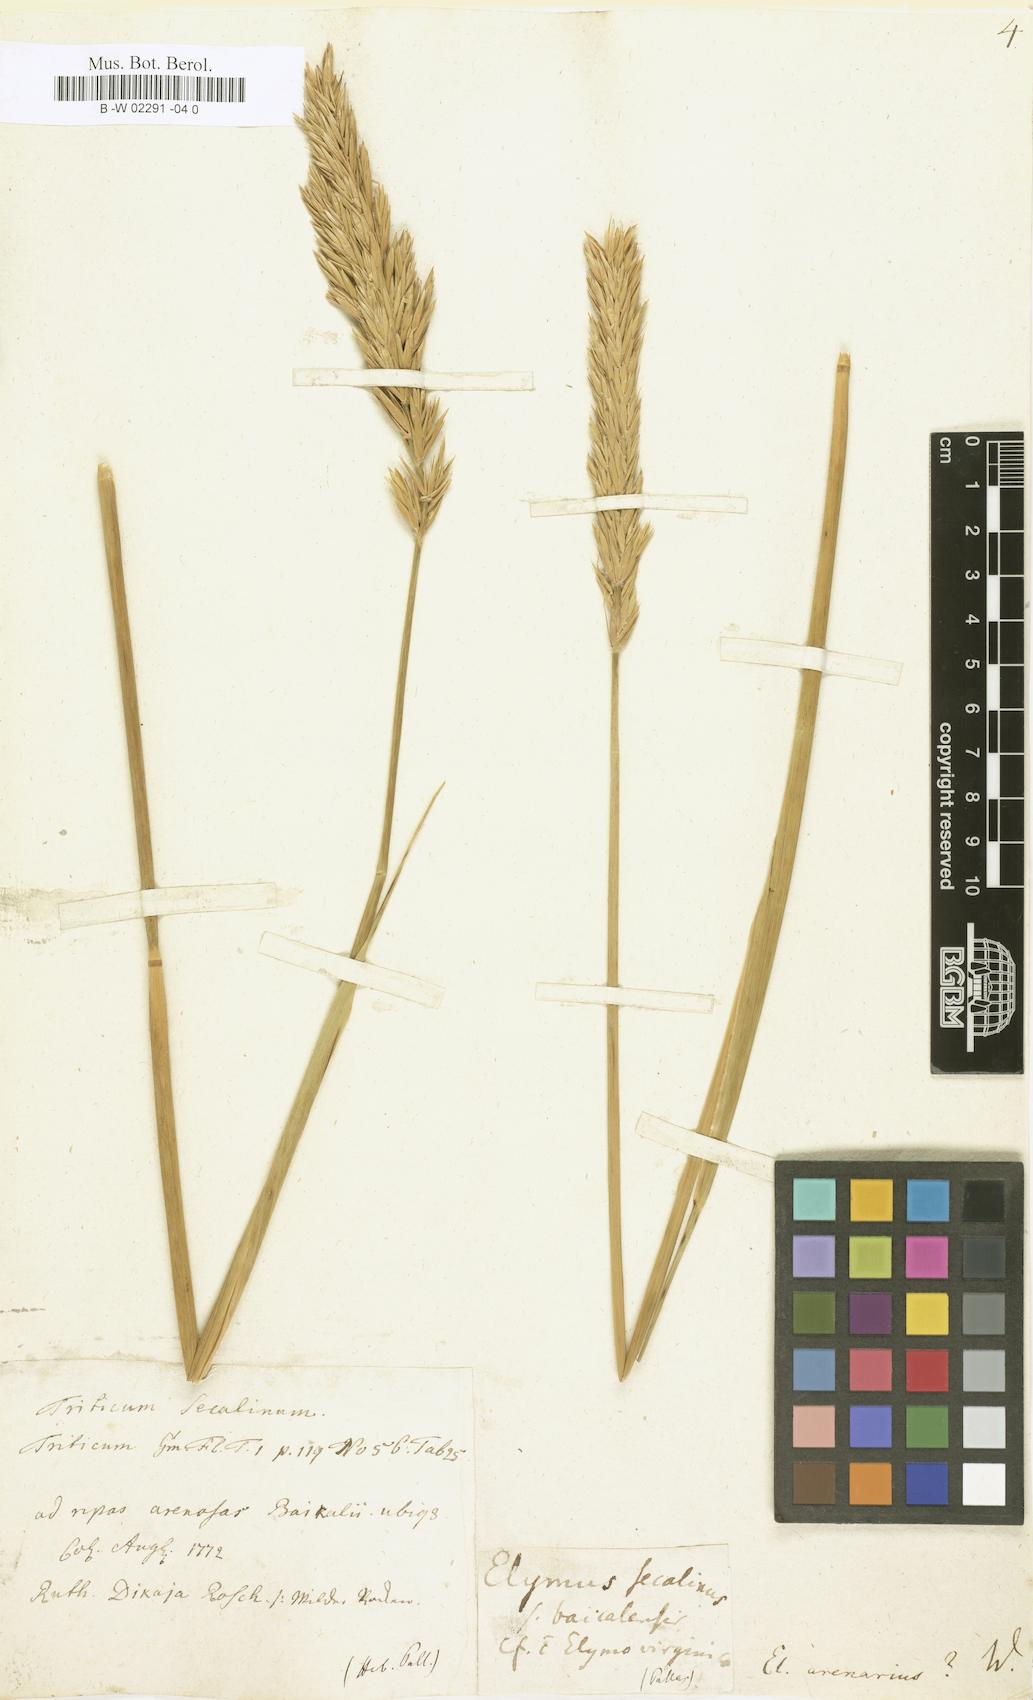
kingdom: Plantae
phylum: Tracheophyta
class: Liliopsida
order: Poales
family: Poaceae
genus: Elymus
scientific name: Elymus arenarius
